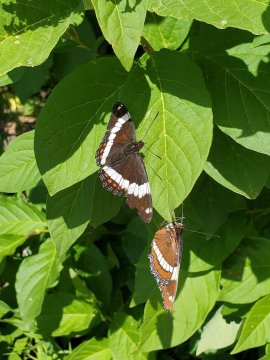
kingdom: Animalia
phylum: Arthropoda
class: Insecta
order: Lepidoptera
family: Nymphalidae
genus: Limenitis
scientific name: Limenitis arthemis
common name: Red-spotted Admiral
